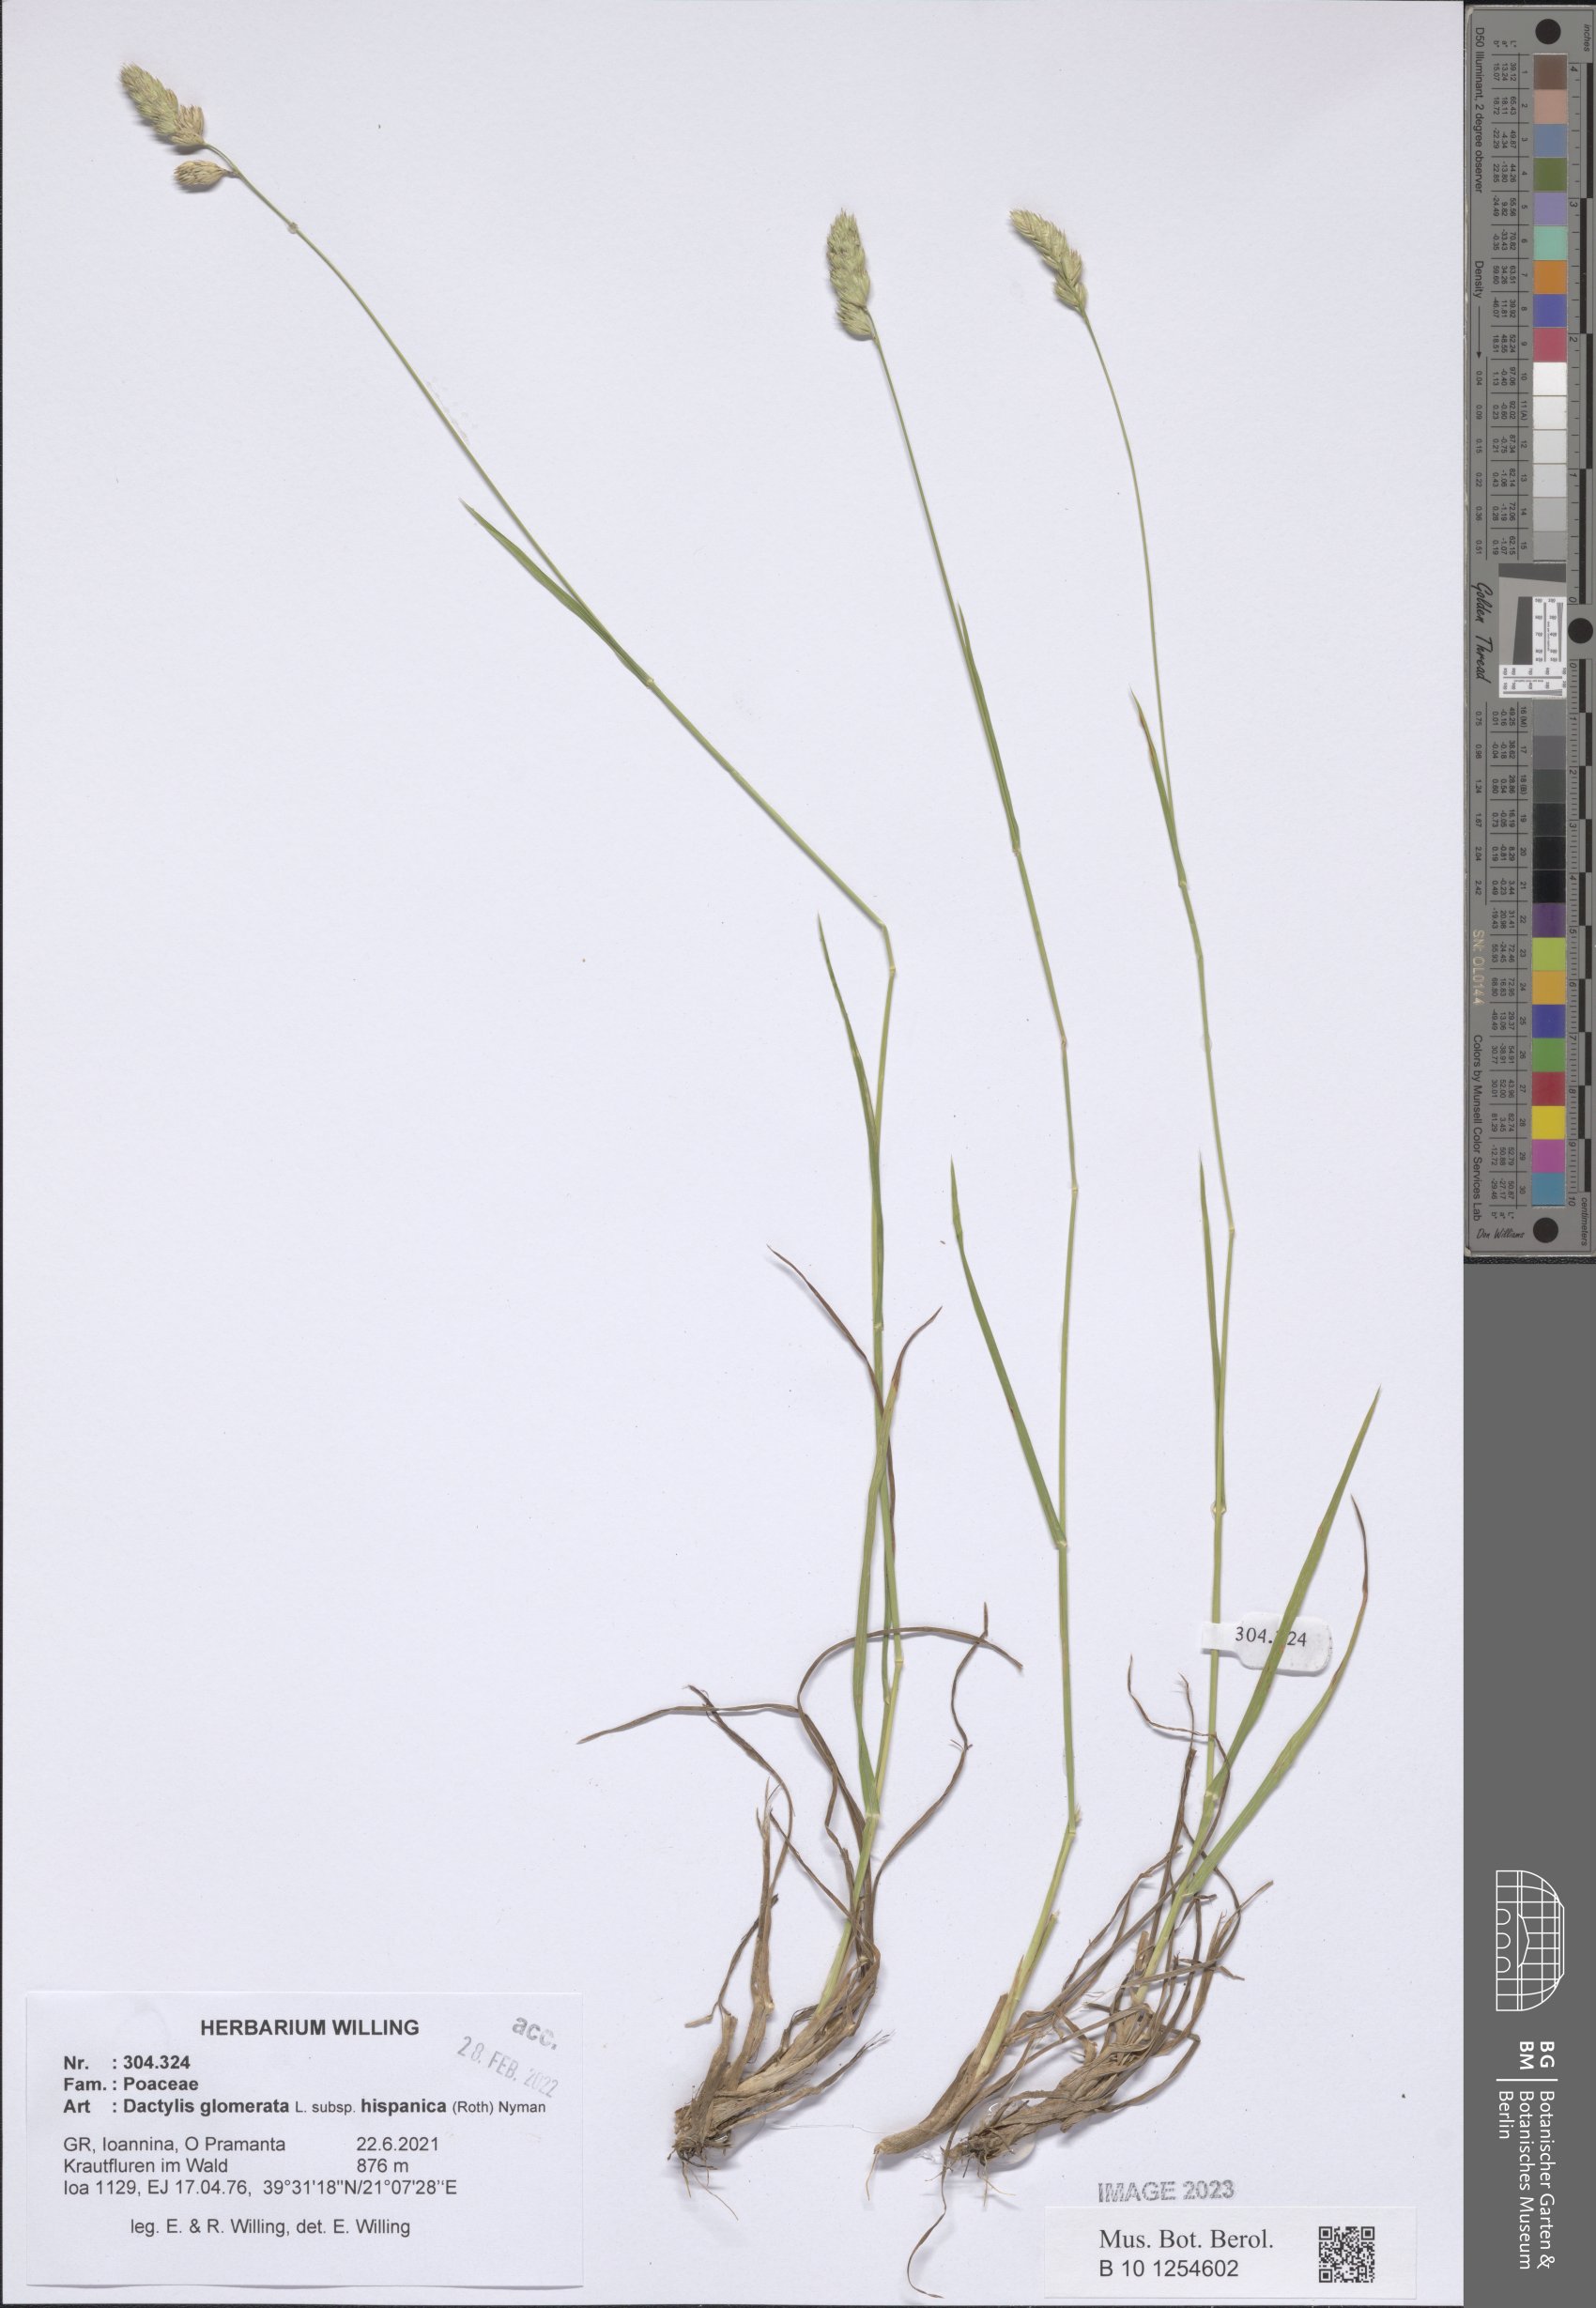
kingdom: Plantae
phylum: Tracheophyta
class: Liliopsida
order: Poales
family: Poaceae
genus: Dactylis
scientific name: Dactylis glomerata
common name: Orchardgrass
